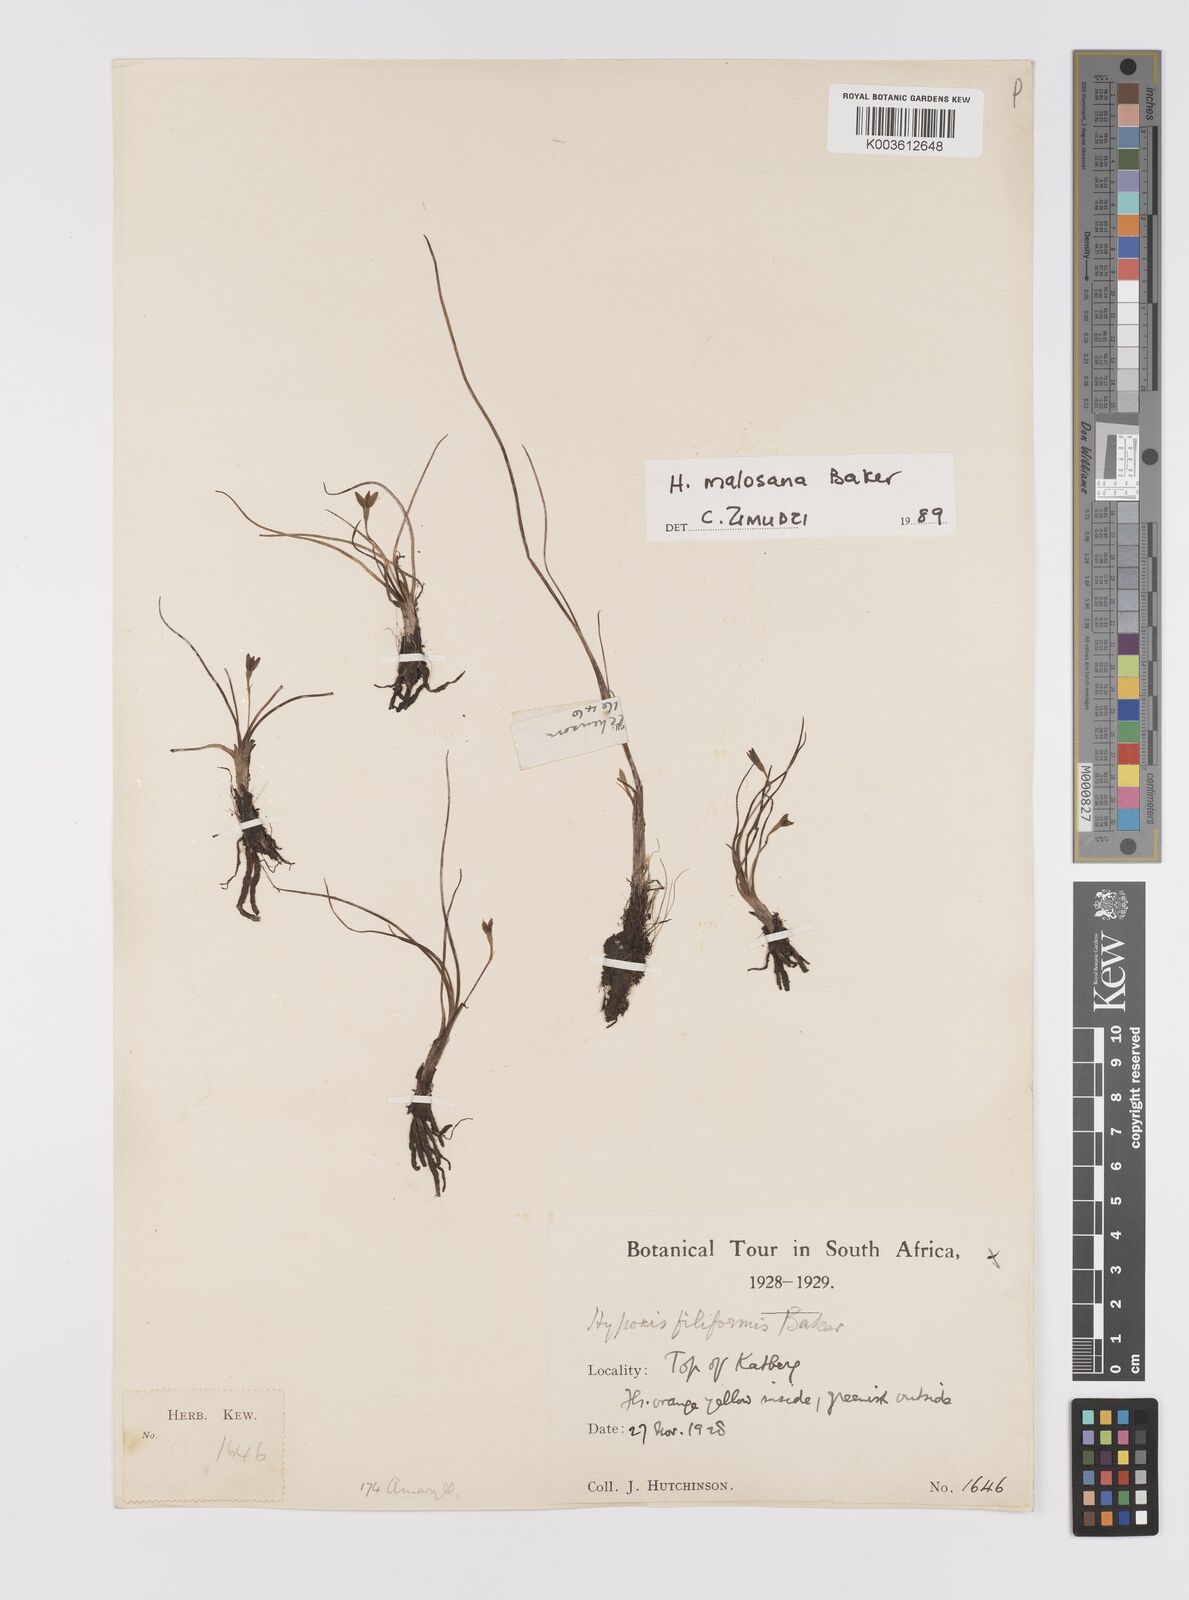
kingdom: Plantae
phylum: Tracheophyta
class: Liliopsida
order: Asparagales
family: Hypoxidaceae
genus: Hypoxis
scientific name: Hypoxis filiformis
